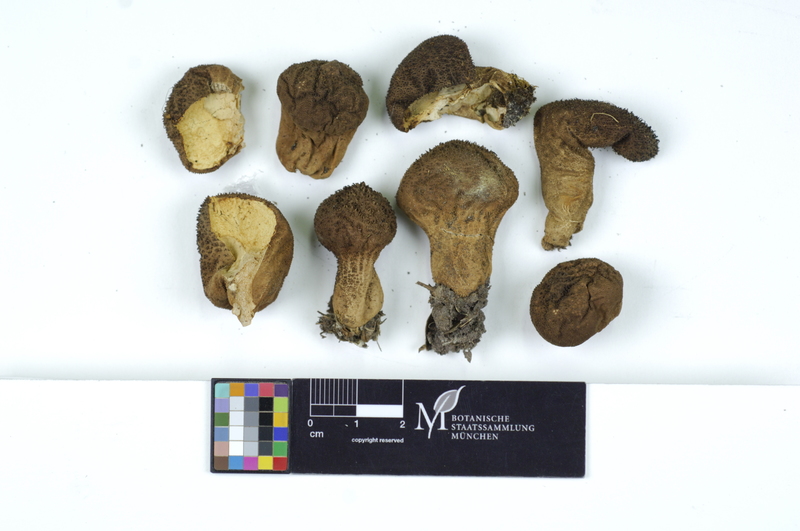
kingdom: Fungi
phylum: Basidiomycota
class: Agaricomycetes
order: Agaricales
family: Lycoperdaceae
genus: Lycoperdon
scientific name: Lycoperdon nigrescens
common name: Blackish puffball
